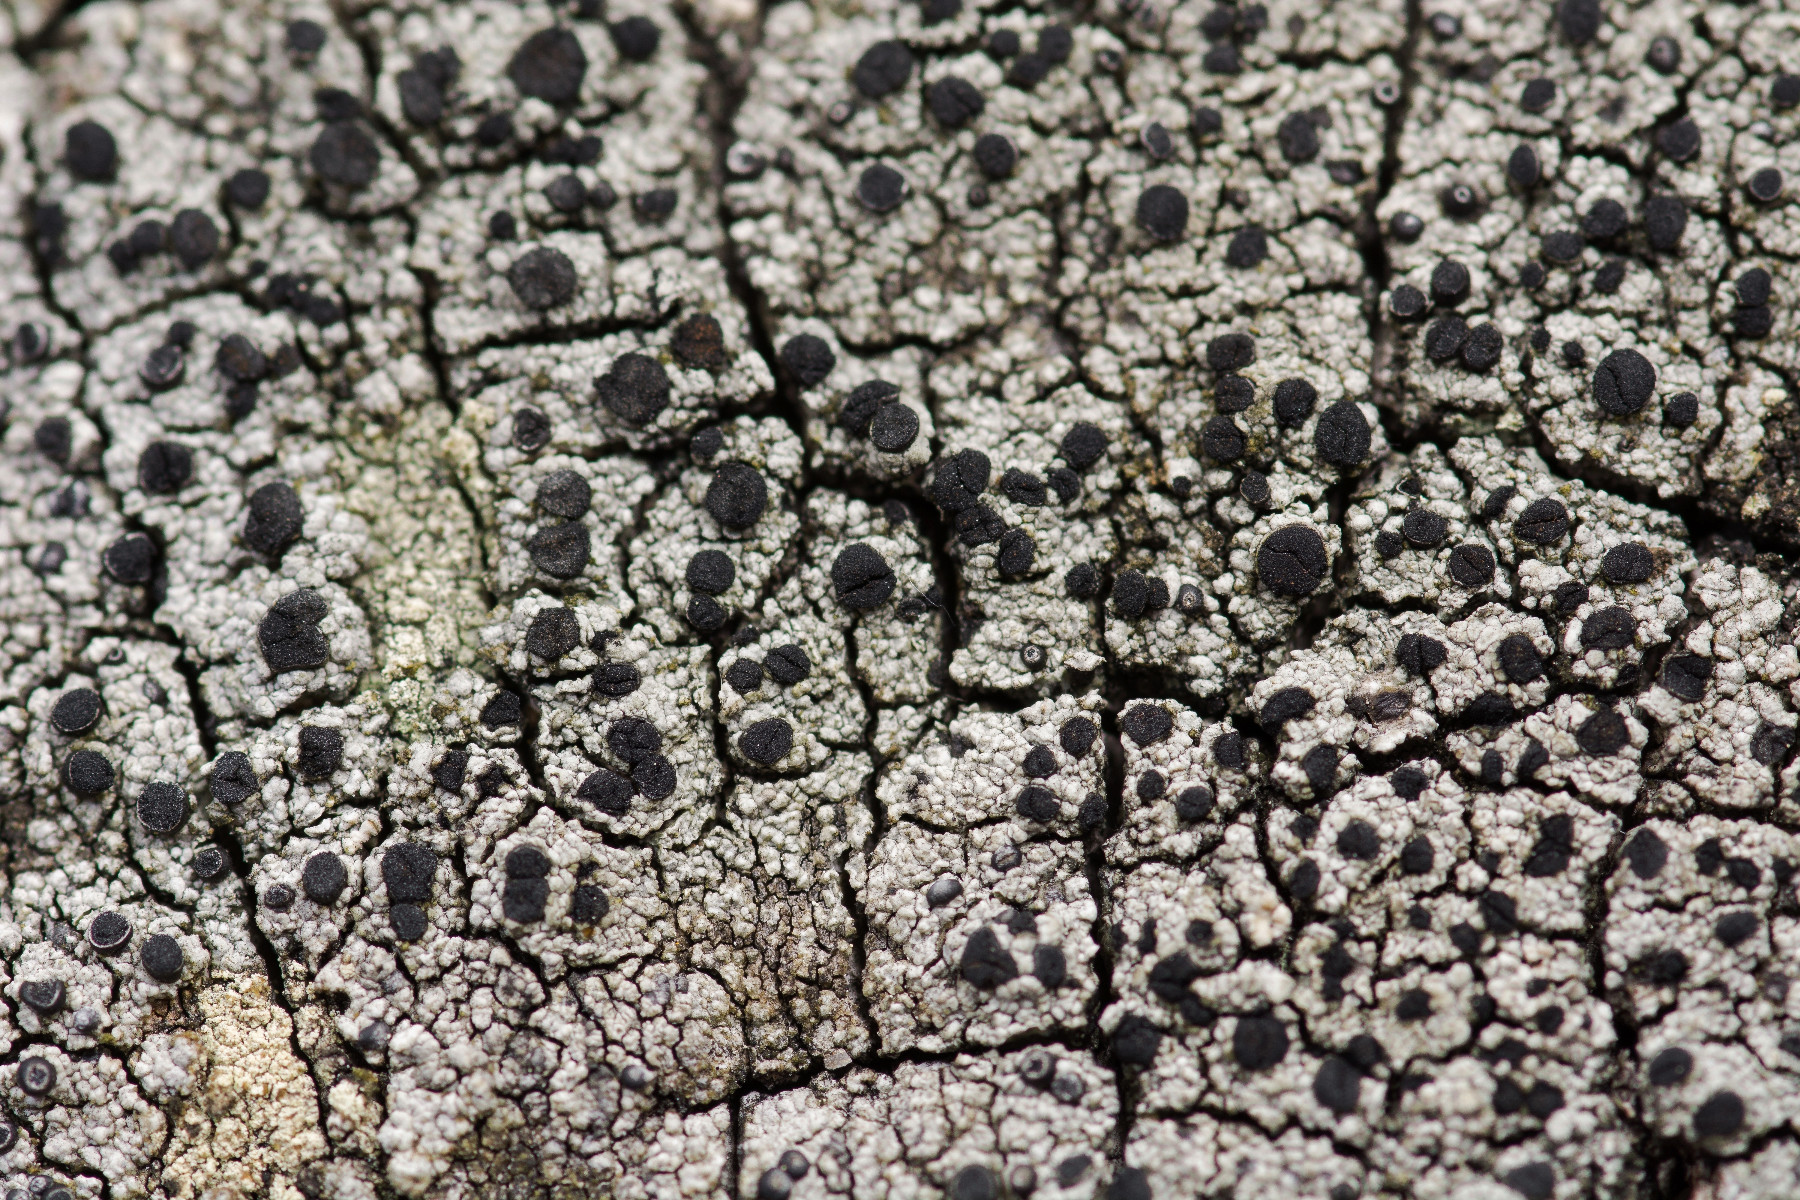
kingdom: Fungi
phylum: Ascomycota
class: Lecanoromycetes
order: Caliciales
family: Caliciaceae
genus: Acolium
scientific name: Acolium inquinans
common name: siddende sodlav
